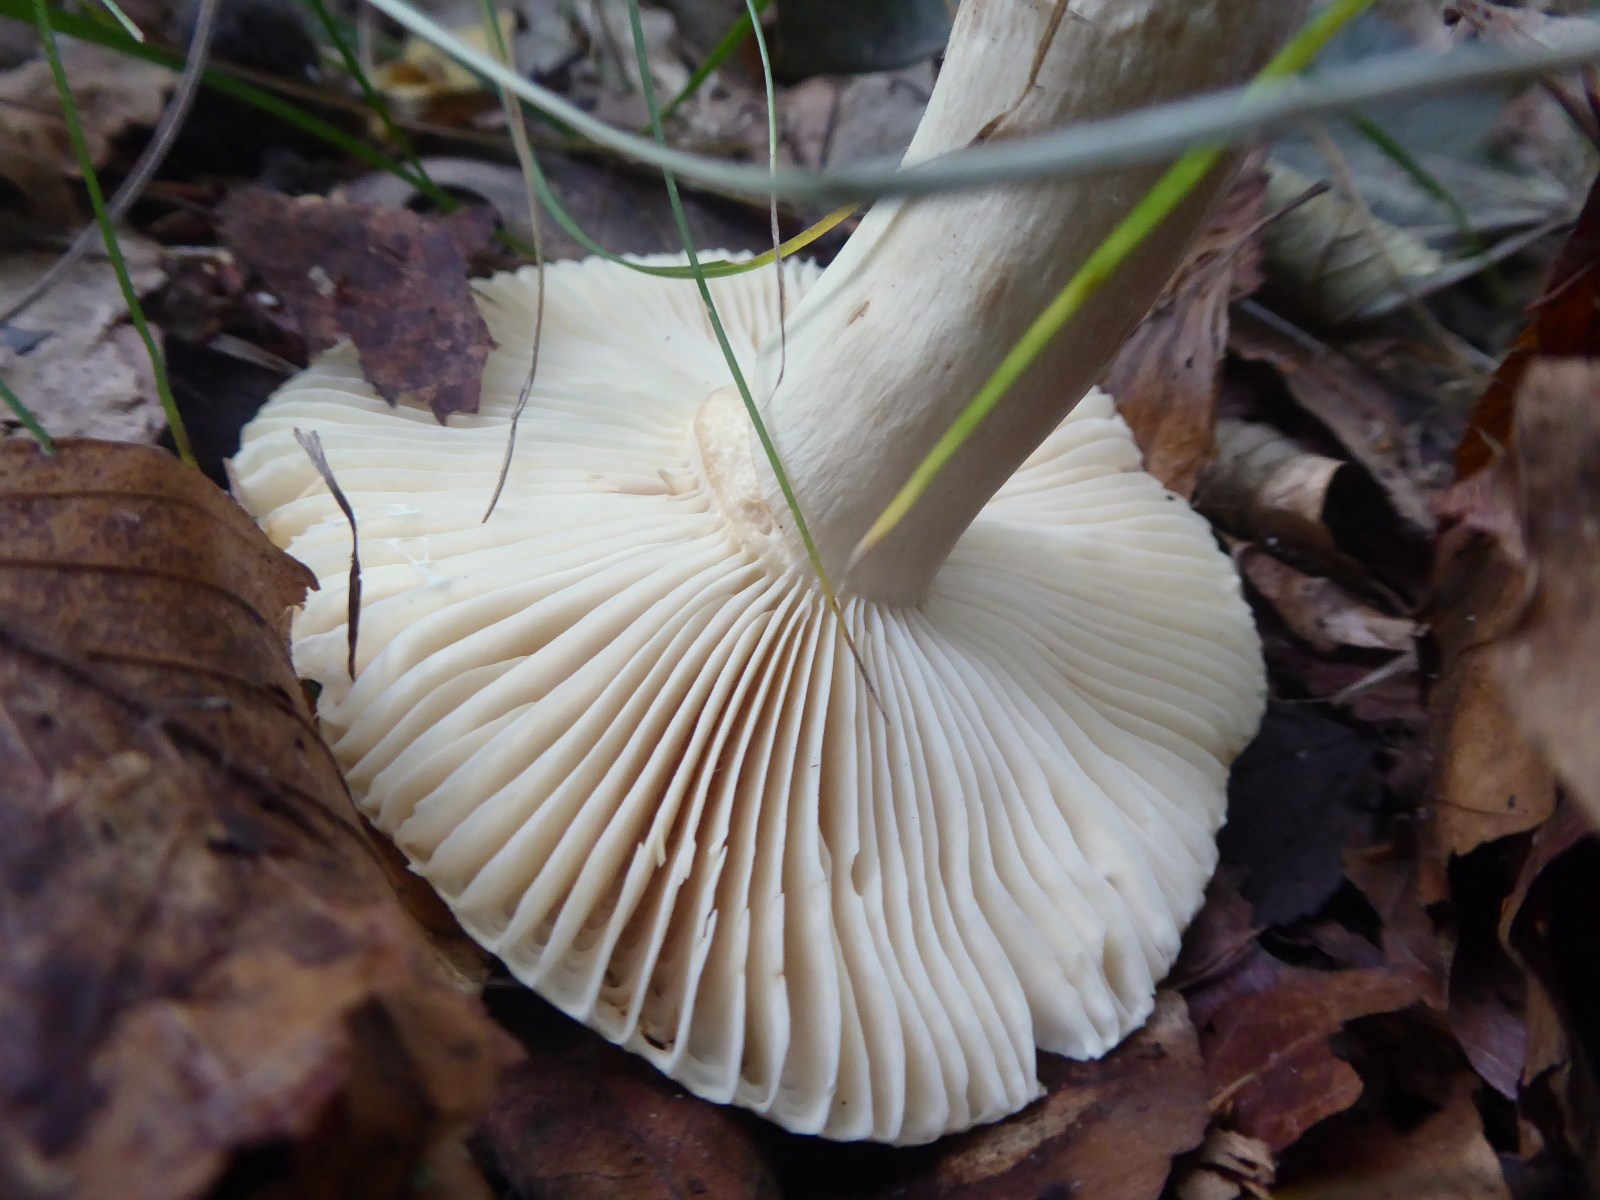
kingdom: Fungi
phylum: Basidiomycota
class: Agaricomycetes
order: Russulales
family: Russulaceae
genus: Russula
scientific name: Russula fellea
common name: galde-skørhat
